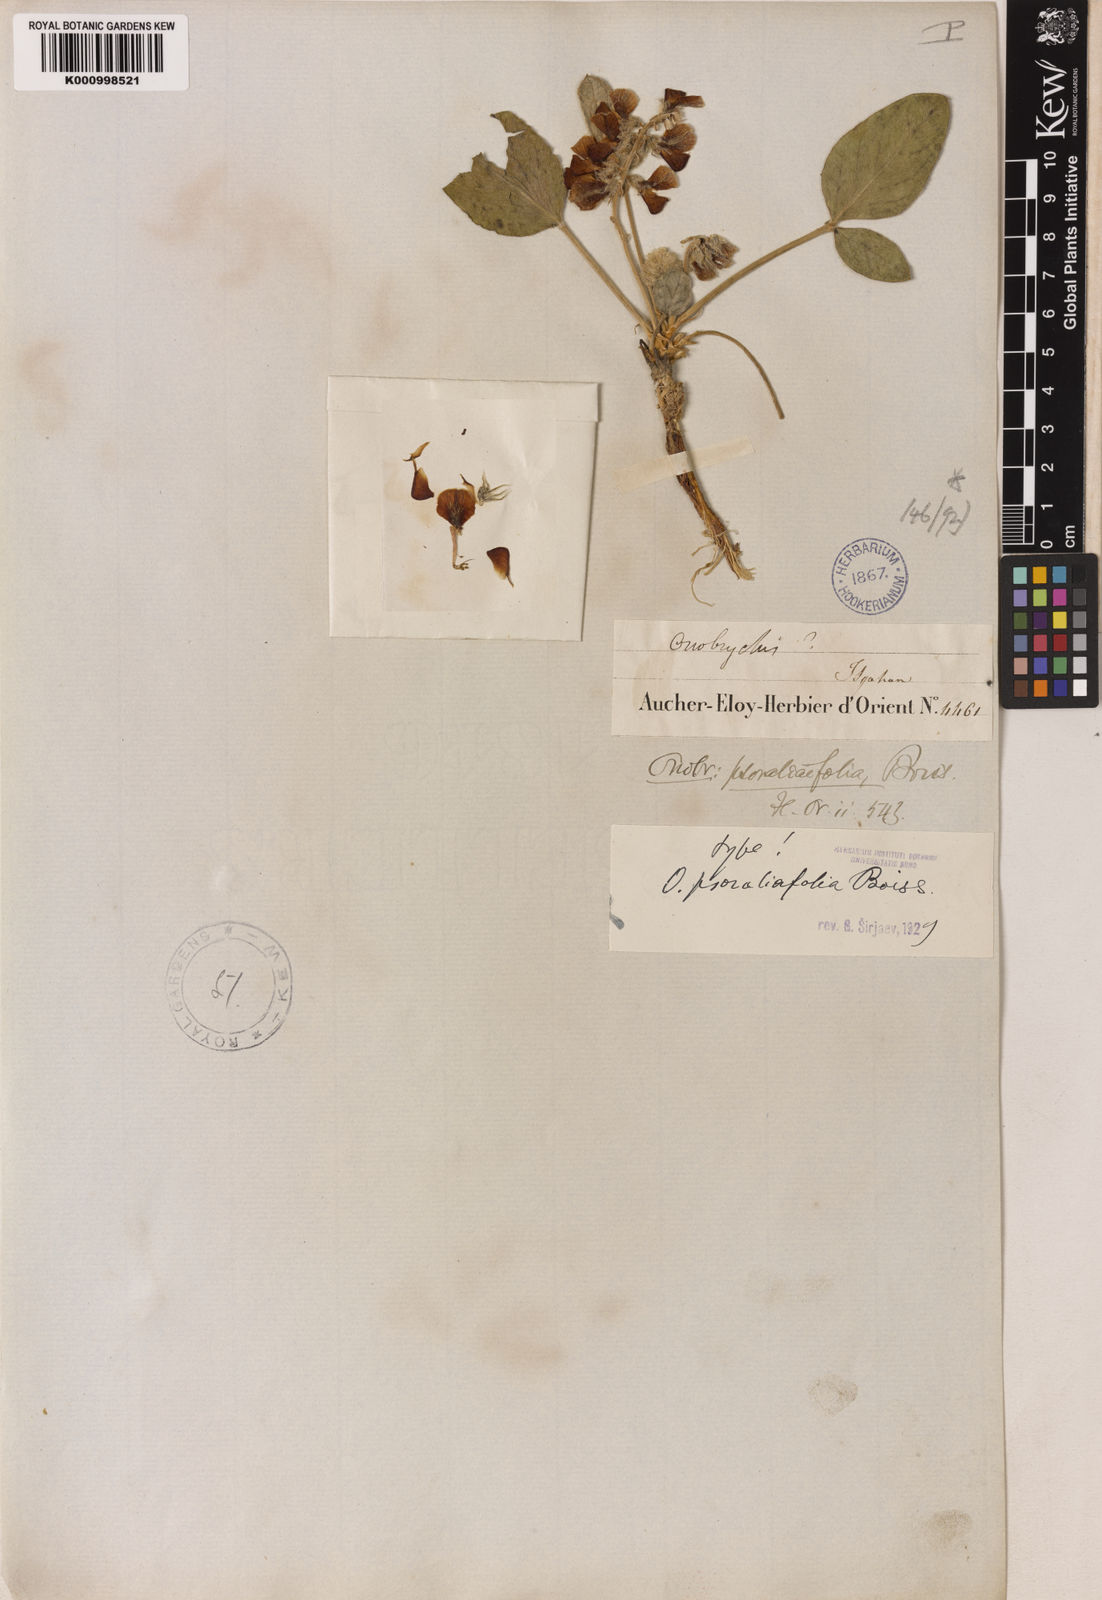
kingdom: Plantae
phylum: Tracheophyta
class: Magnoliopsida
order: Fabales
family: Fabaceae
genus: Onobrychis
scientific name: Onobrychis psoraleifolia
